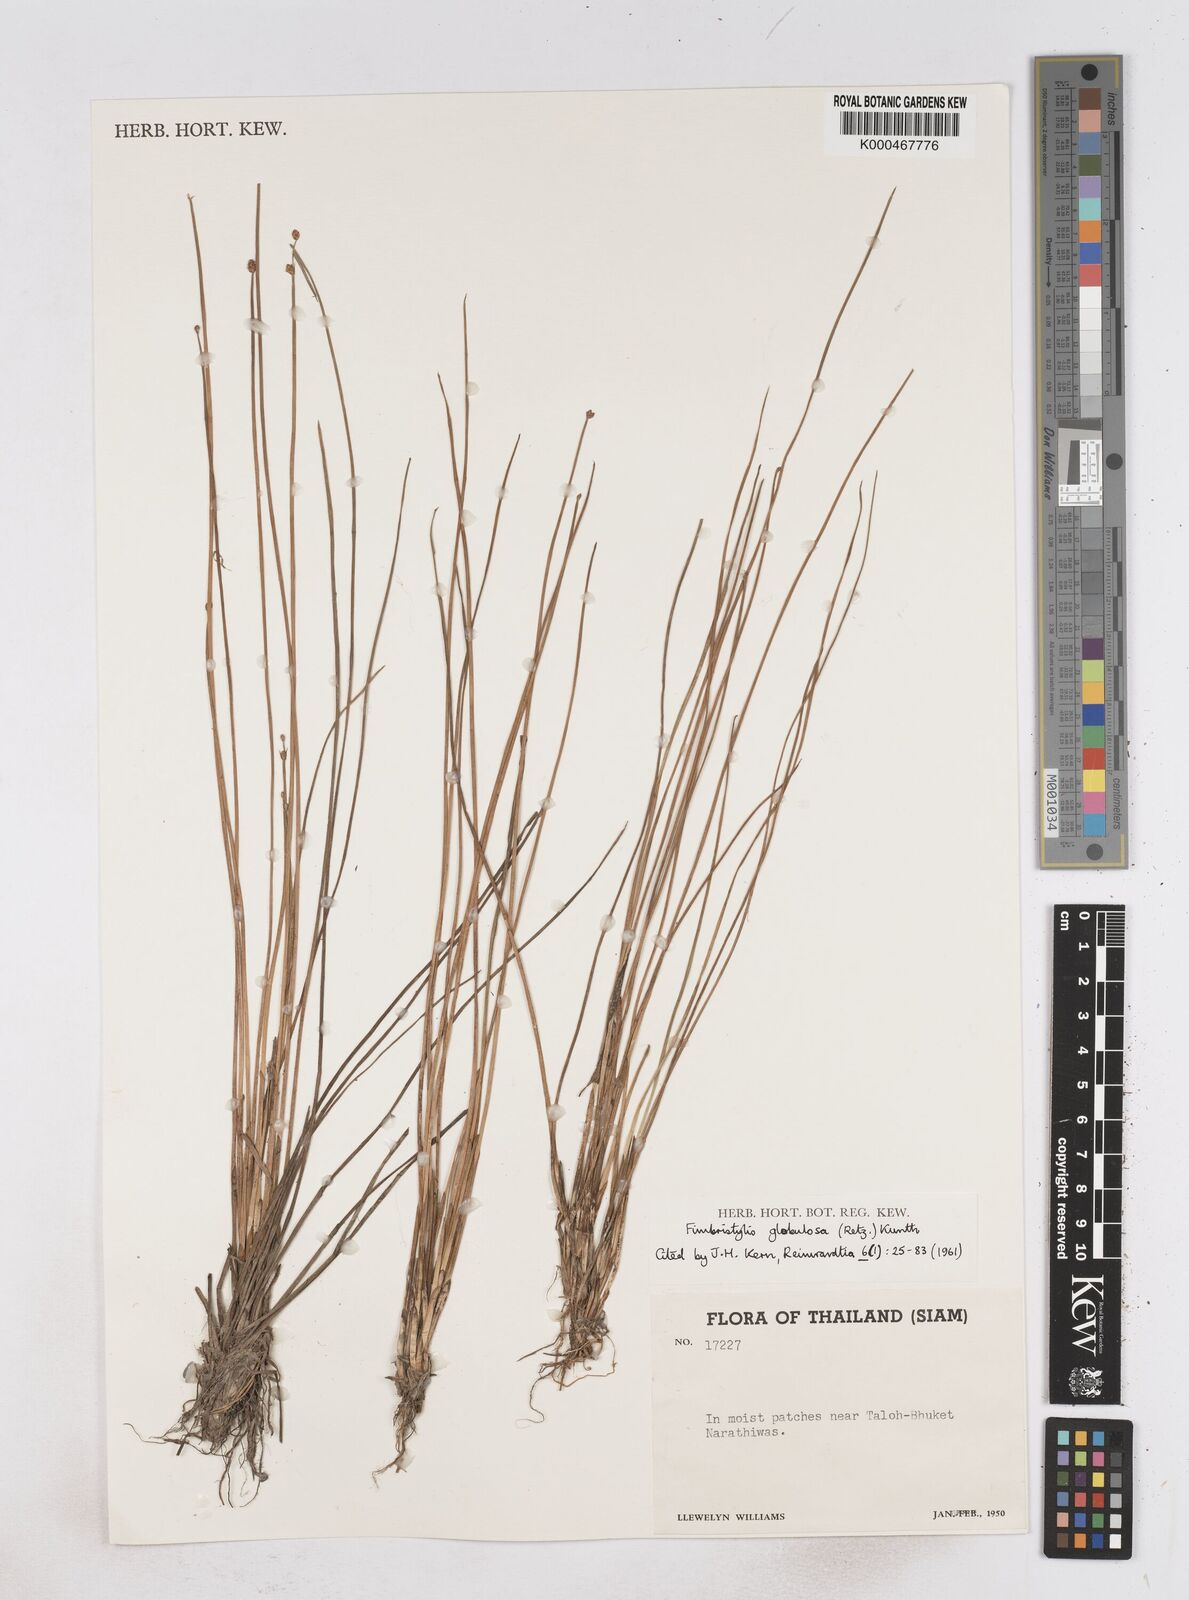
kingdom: Plantae
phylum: Tracheophyta
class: Liliopsida
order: Poales
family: Cyperaceae
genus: Fimbristylis
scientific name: Fimbristylis umbellaris
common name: Globular fimbristylis
